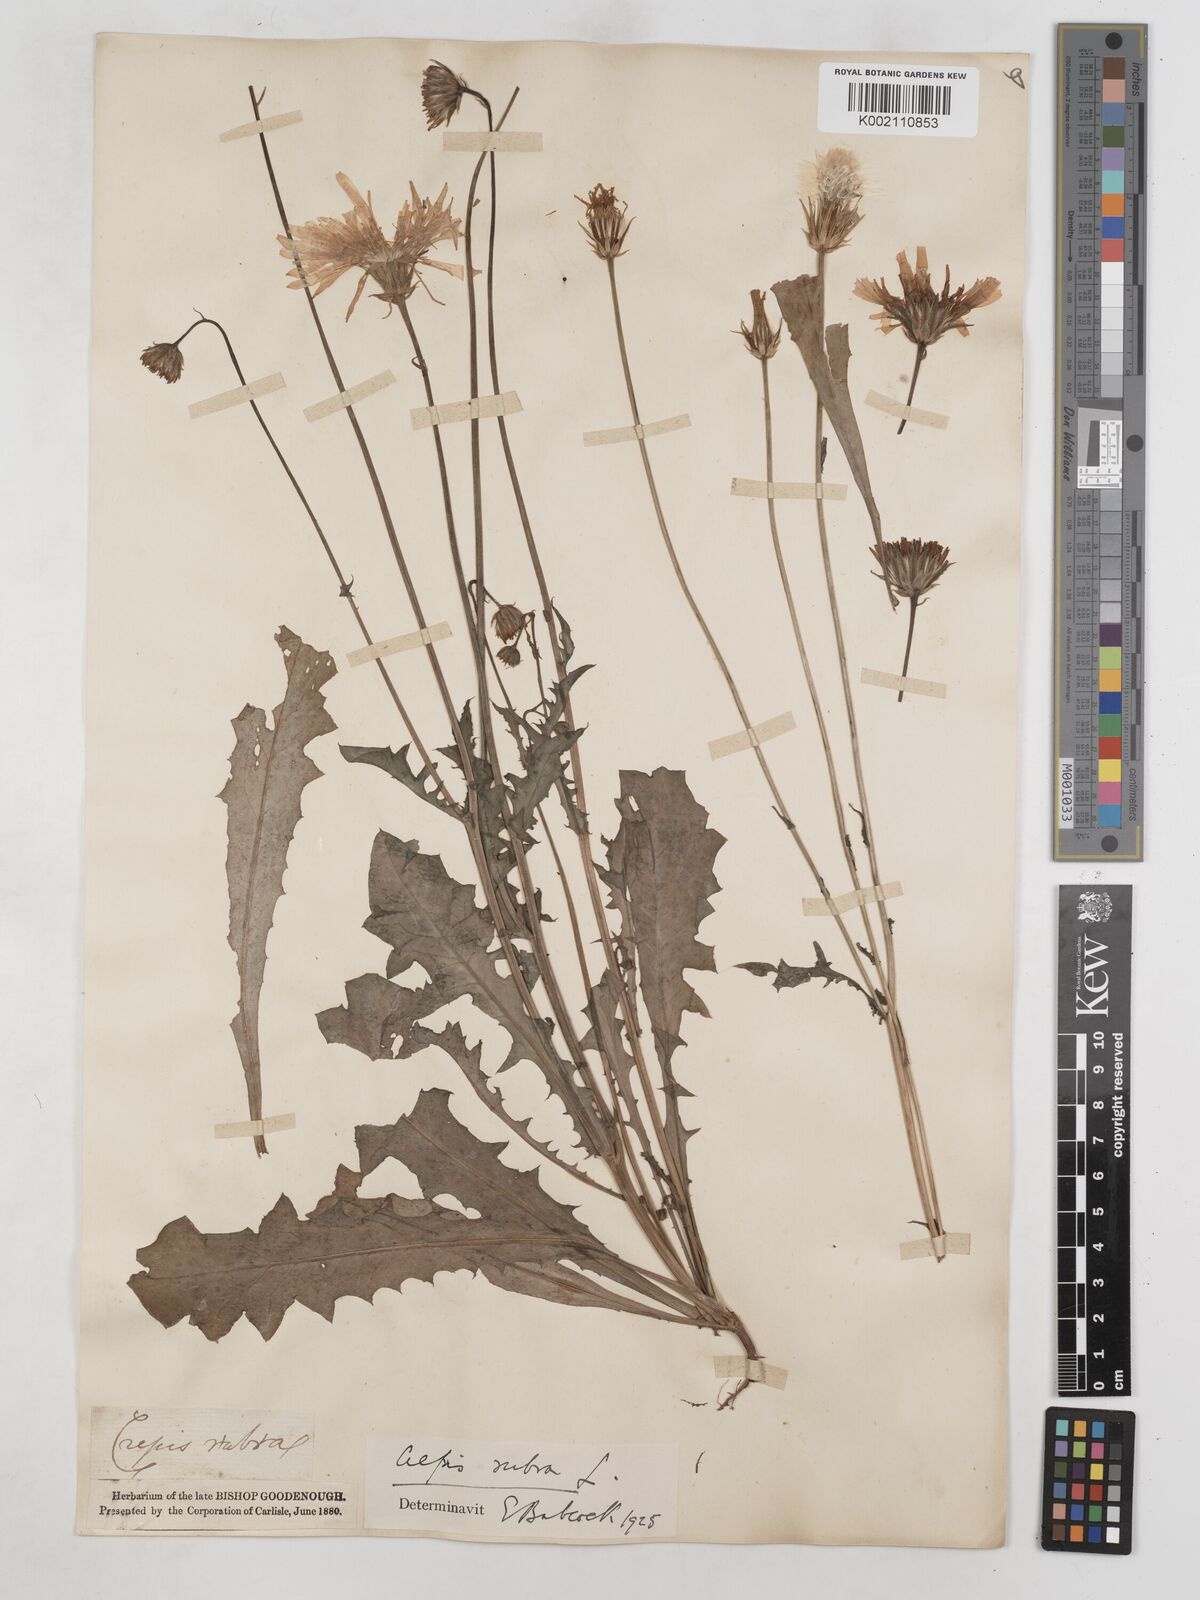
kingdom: Plantae
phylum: Tracheophyta
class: Magnoliopsida
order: Asterales
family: Asteraceae
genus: Crepis
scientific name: Crepis rubra
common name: Pink hawk's-beard
